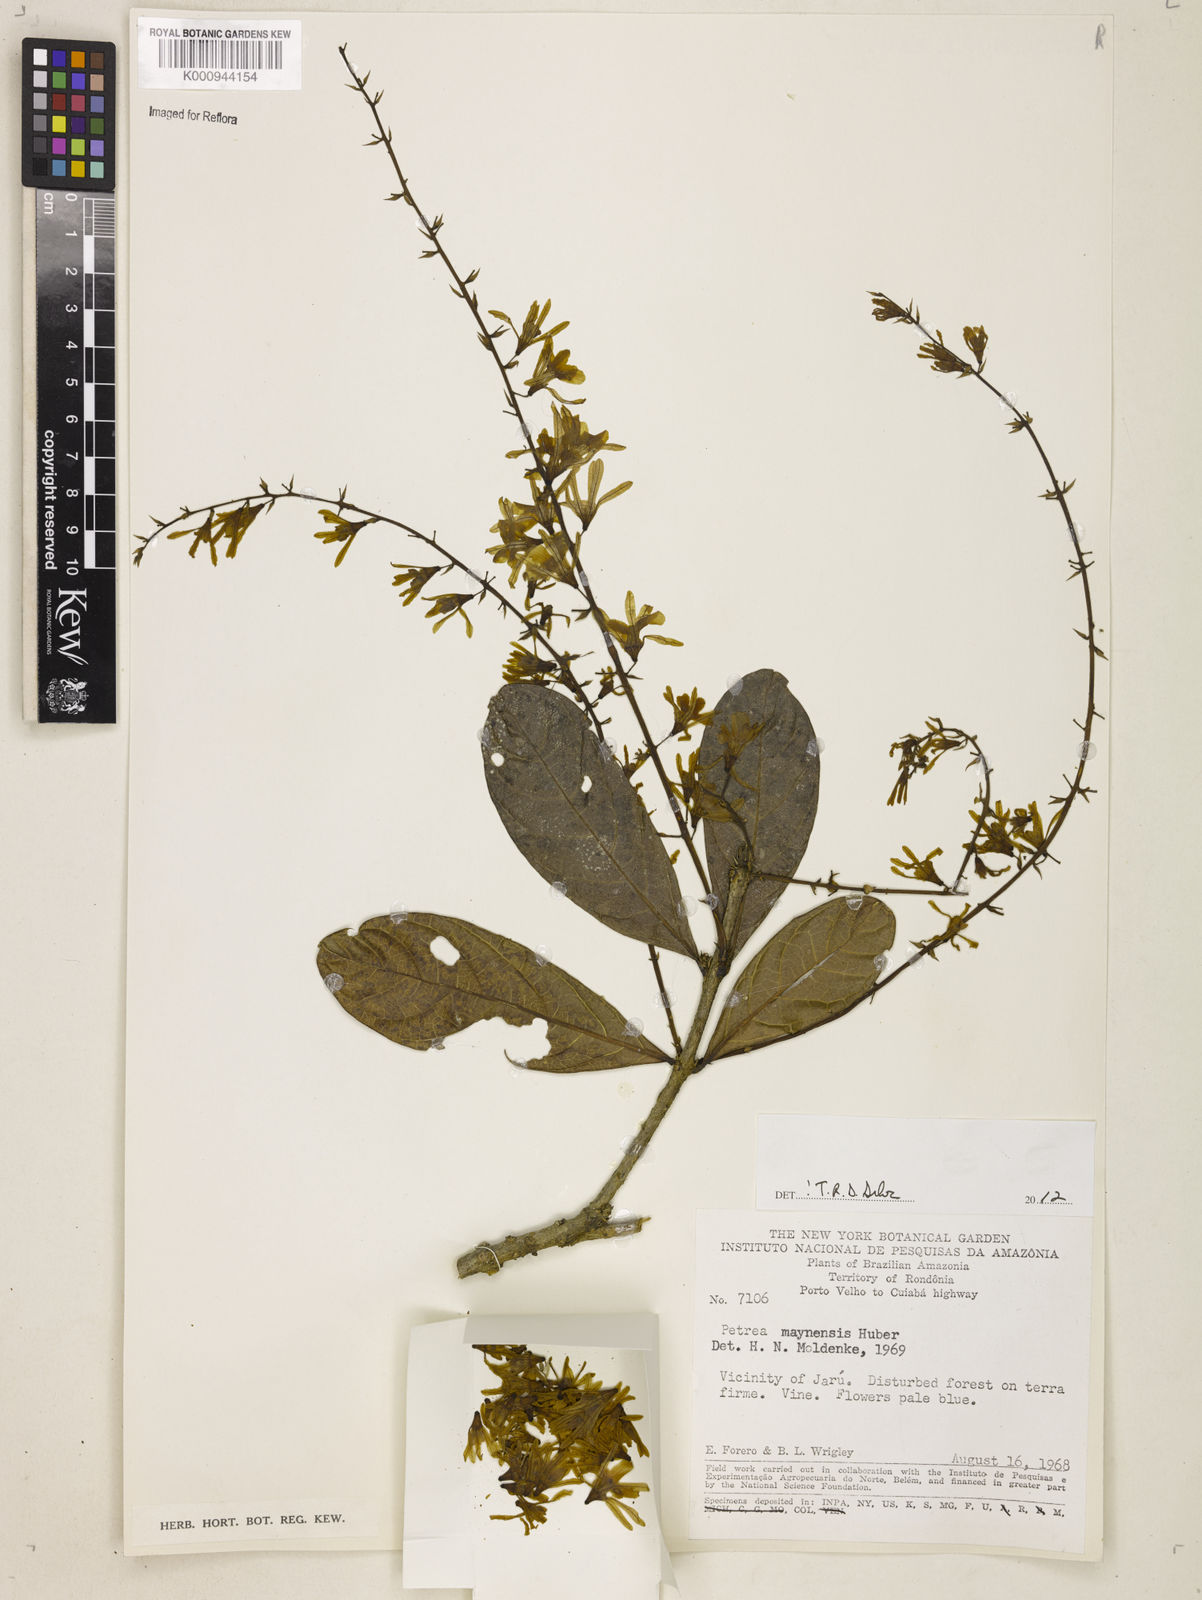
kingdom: Plantae
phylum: Tracheophyta
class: Magnoliopsida
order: Lamiales
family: Verbenaceae
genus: Petrea
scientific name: Petrea maynensis
